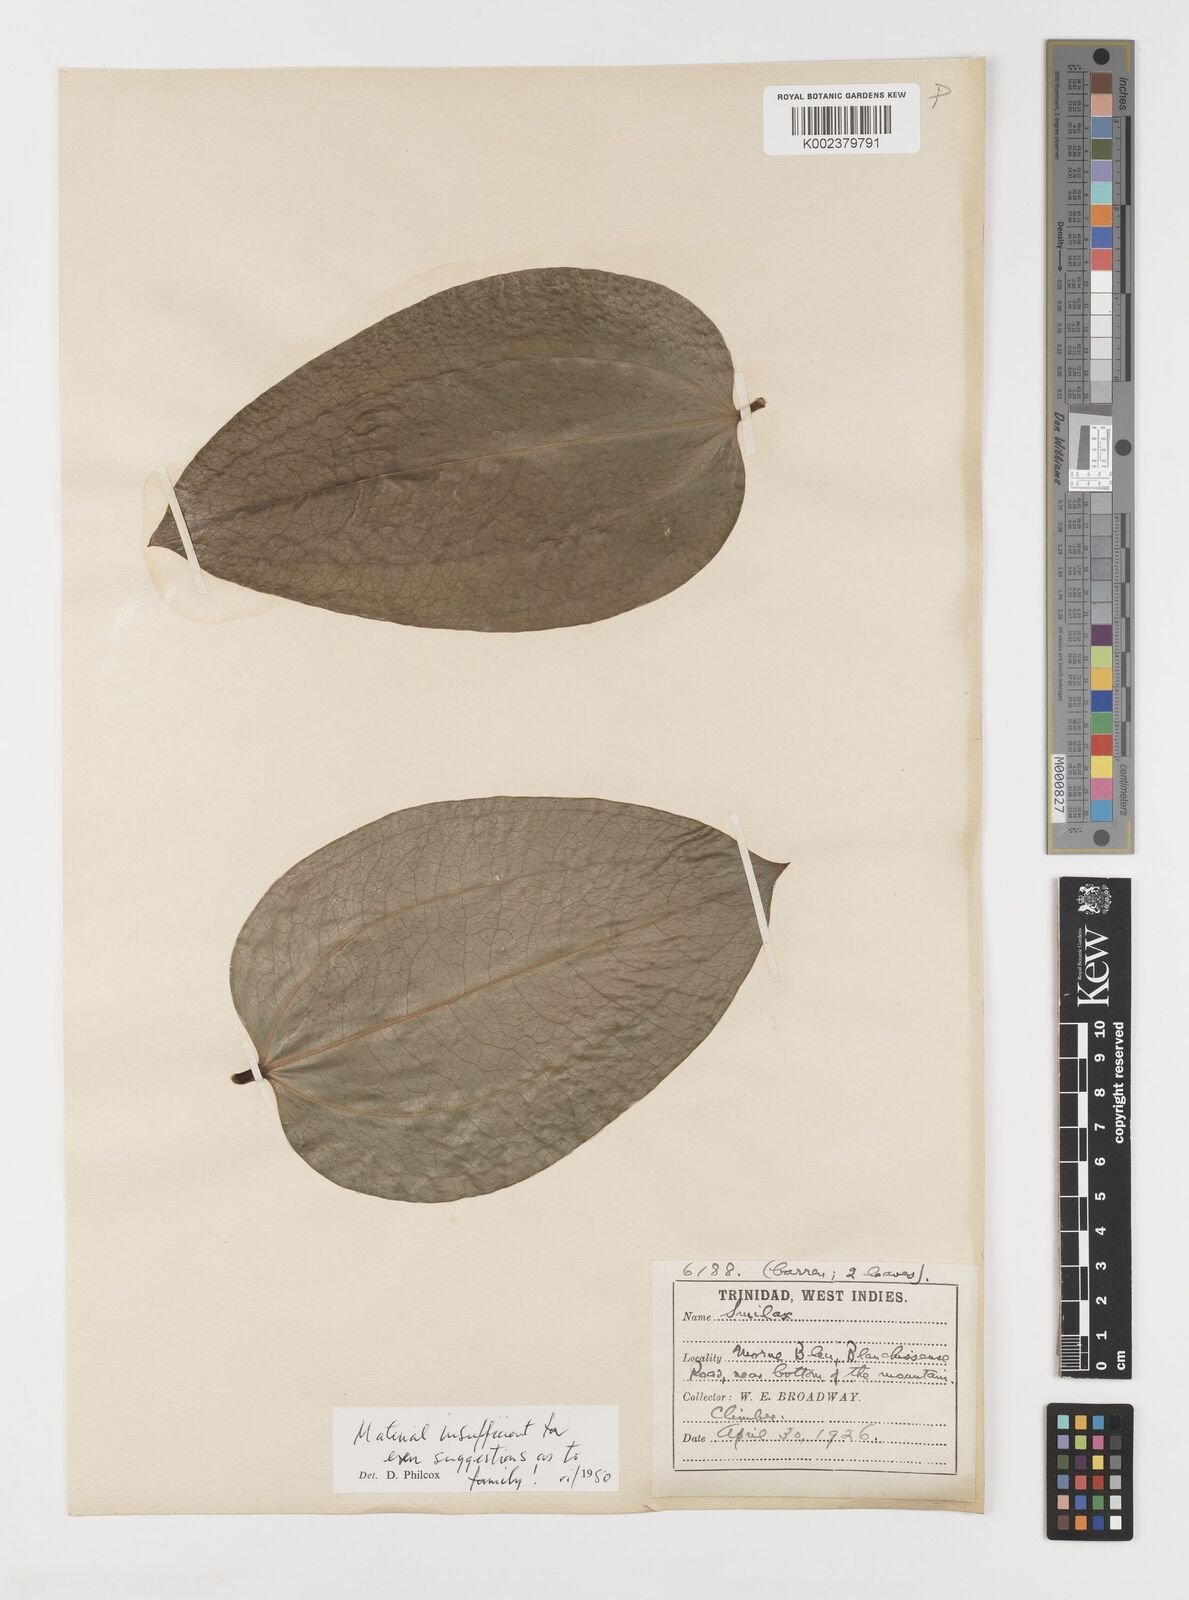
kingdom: Plantae
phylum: Tracheophyta
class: Liliopsida
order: Liliales
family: Smilacaceae
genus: Smilax
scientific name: Smilax oblongata
